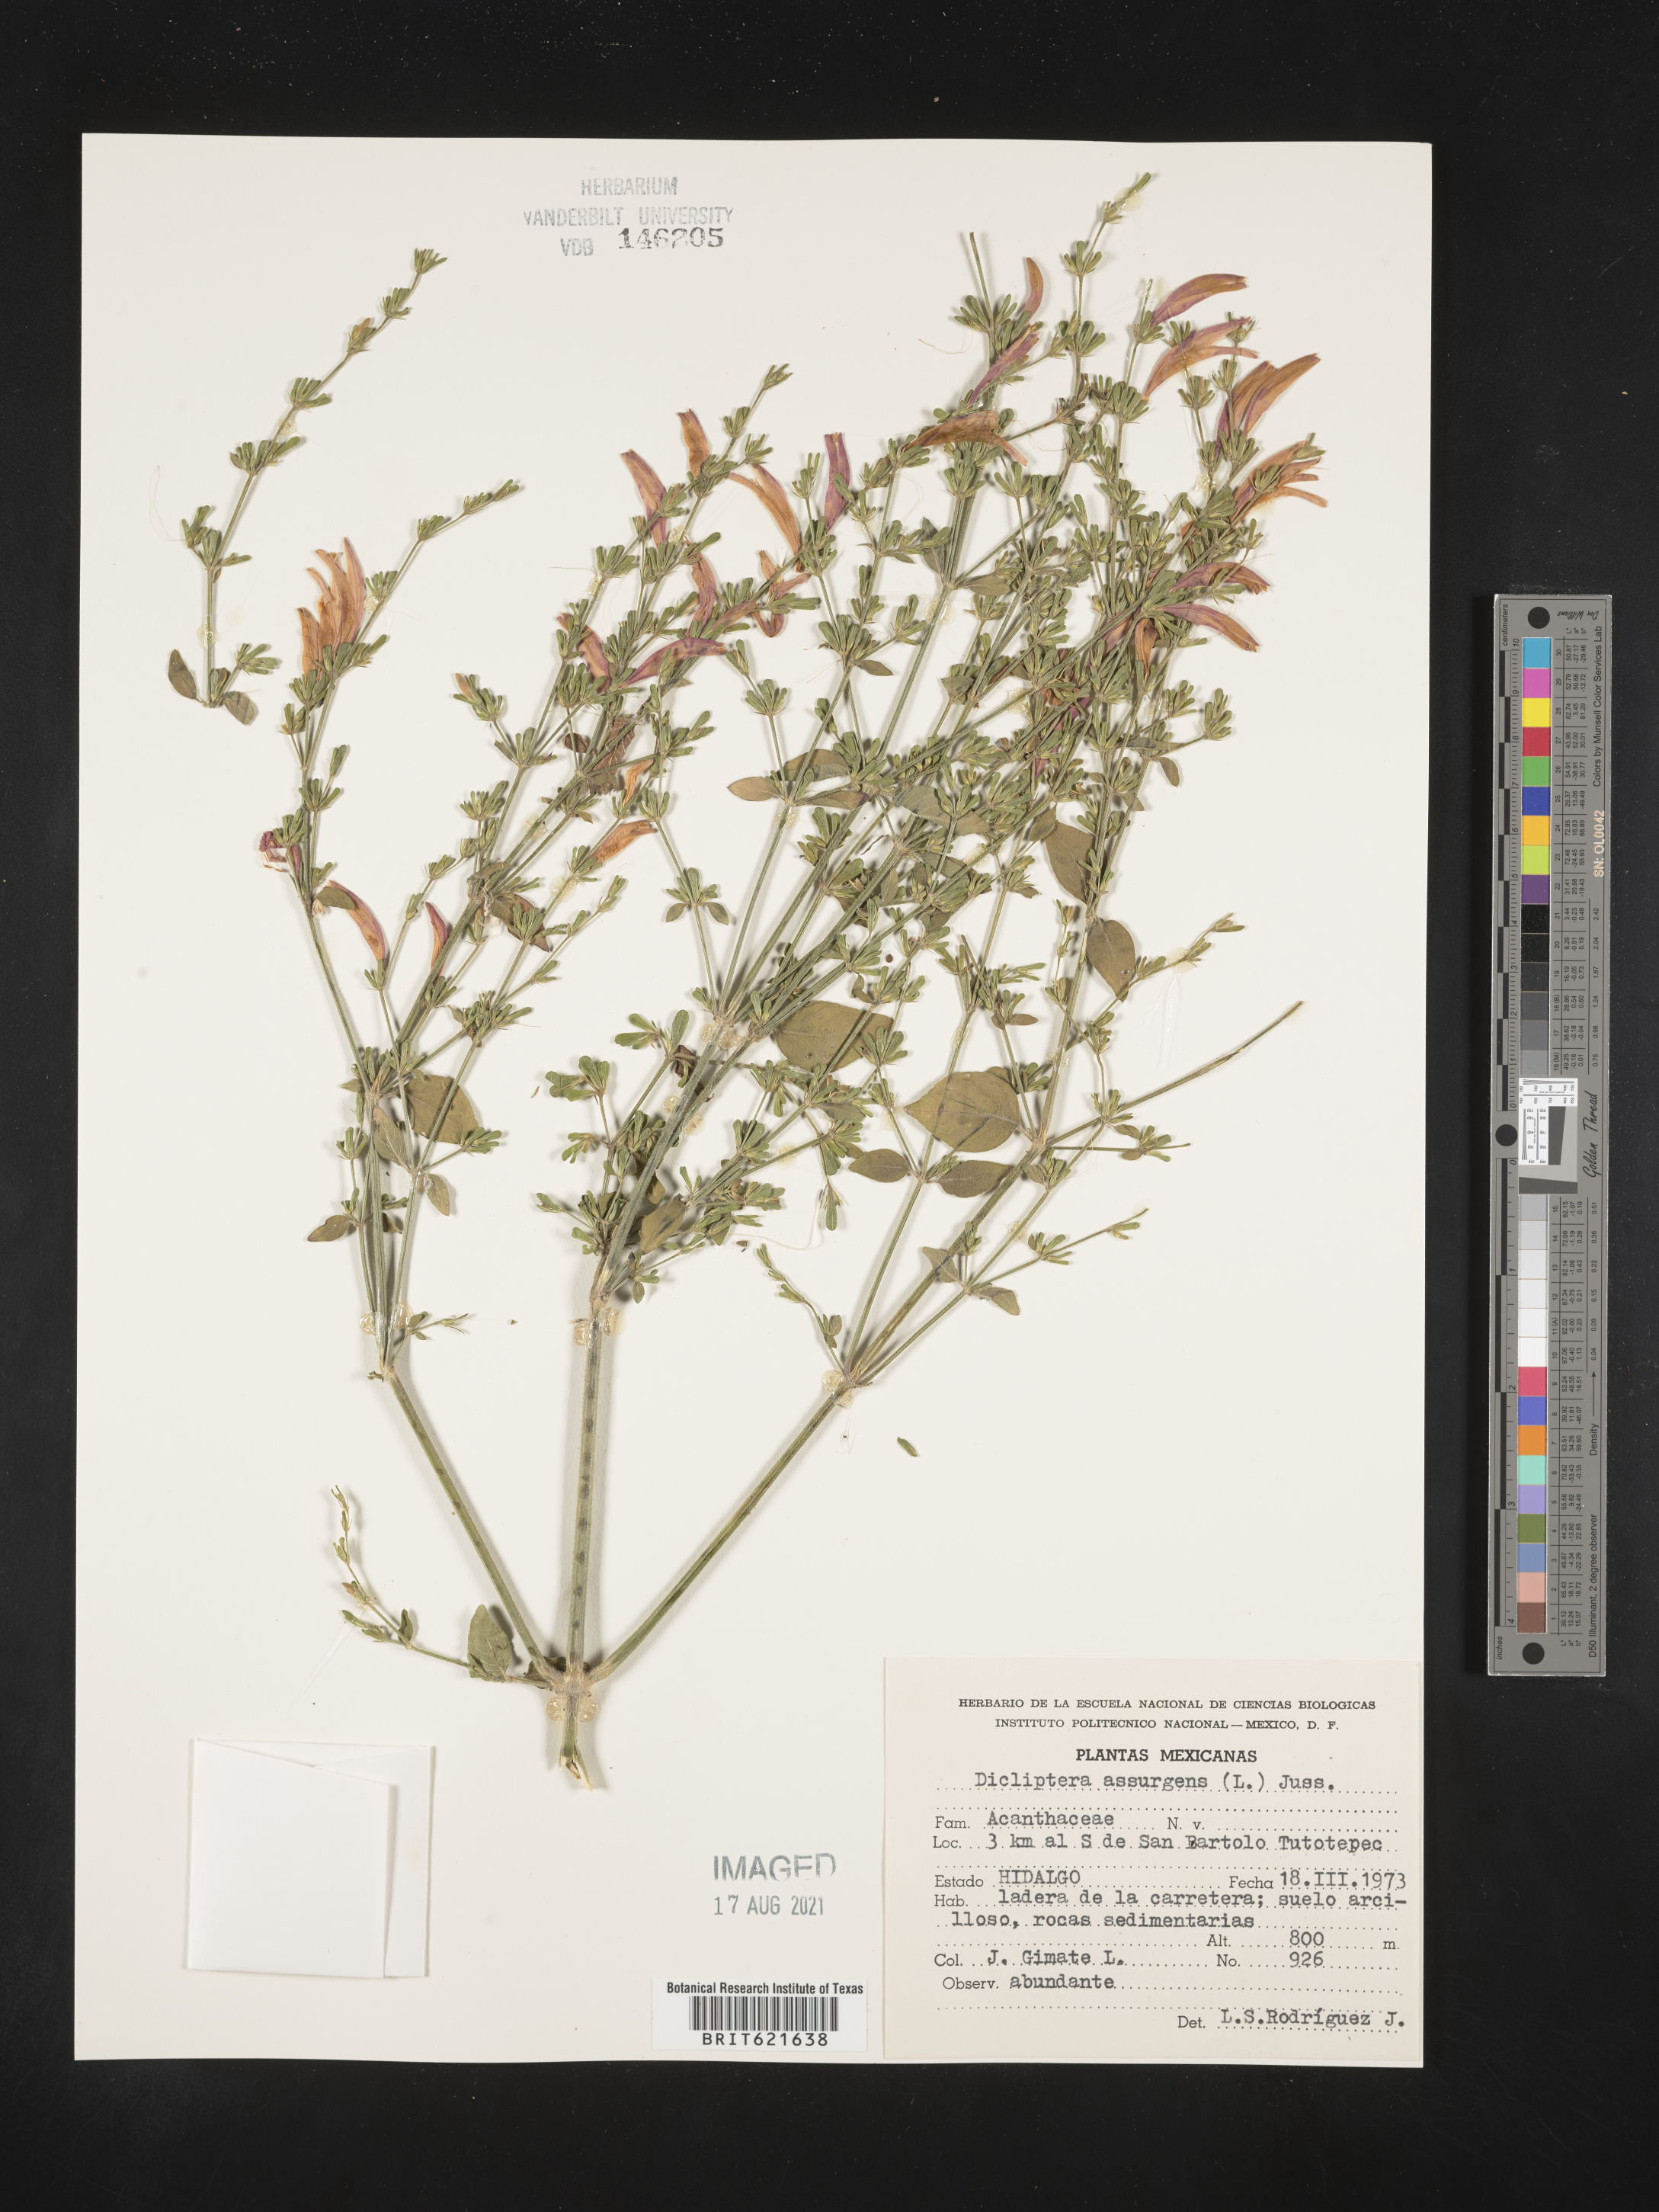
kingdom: Plantae
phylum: Tracheophyta
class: Magnoliopsida
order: Lamiales
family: Acanthaceae
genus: Dicliptera
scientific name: Dicliptera
